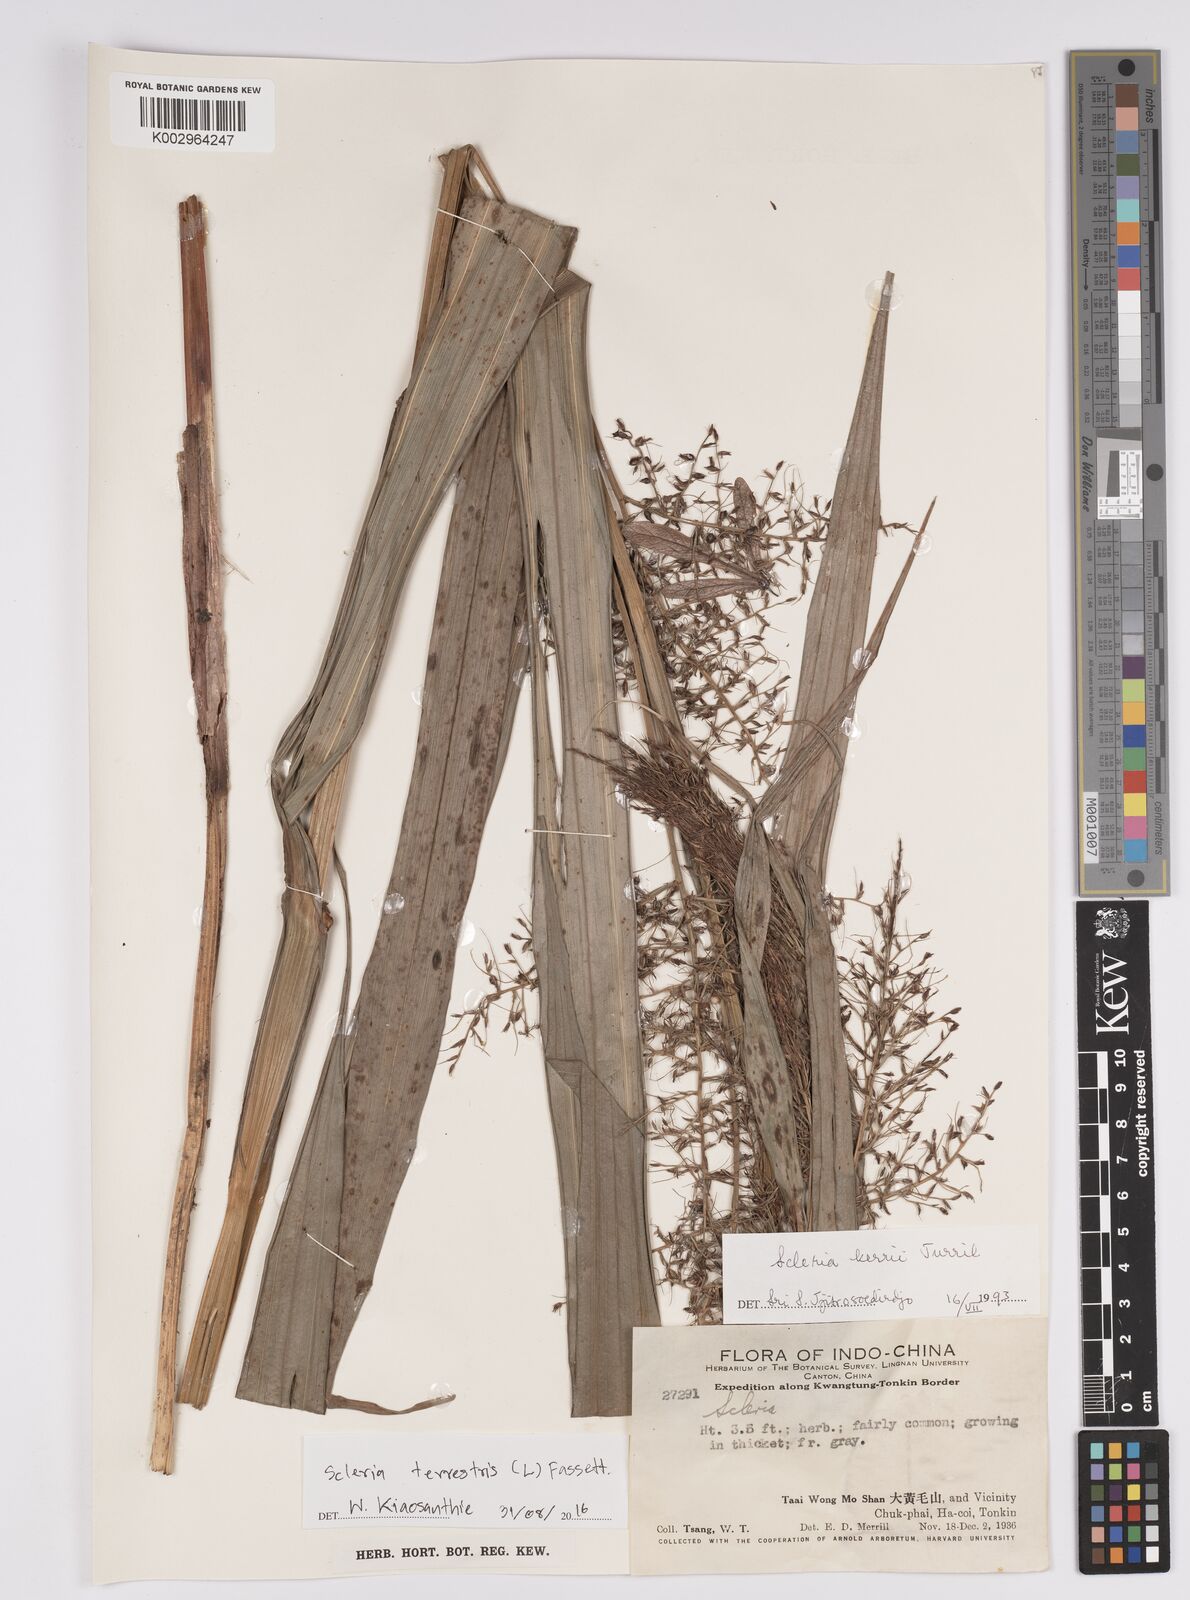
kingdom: Plantae
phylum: Tracheophyta
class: Liliopsida
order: Poales
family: Cyperaceae
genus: Scleria
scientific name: Scleria terrestris
